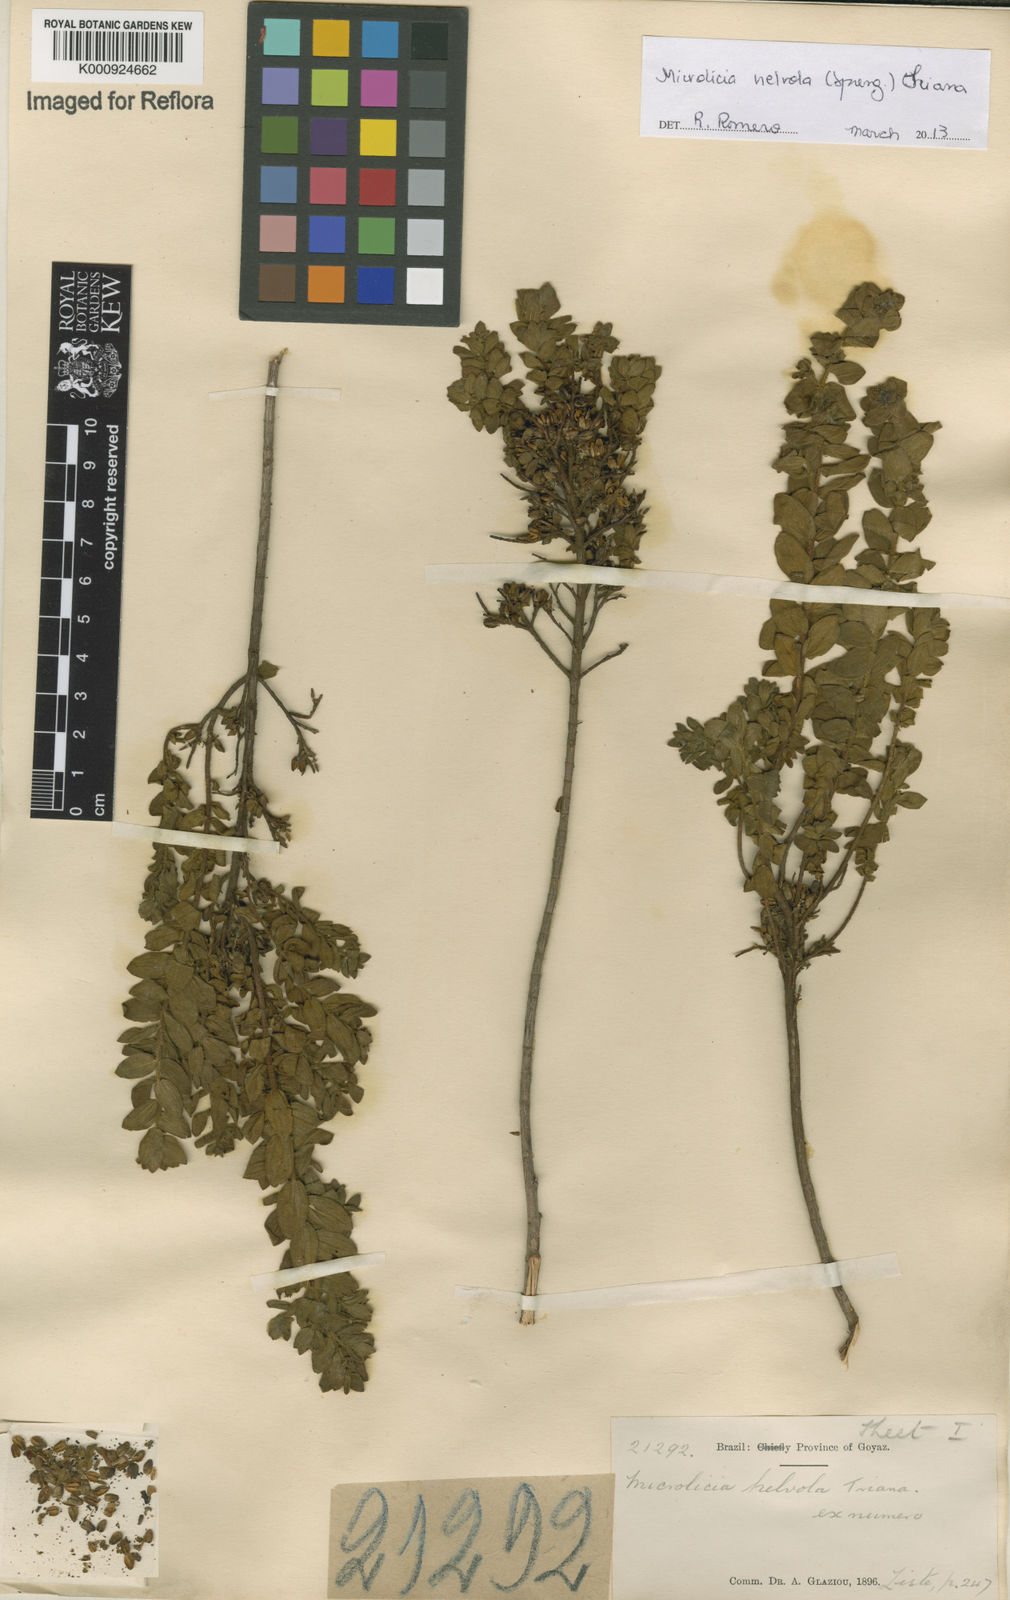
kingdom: Plantae
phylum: Tracheophyta
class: Magnoliopsida
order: Myrtales
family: Melastomataceae
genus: Microlicia
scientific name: Microlicia helvola
